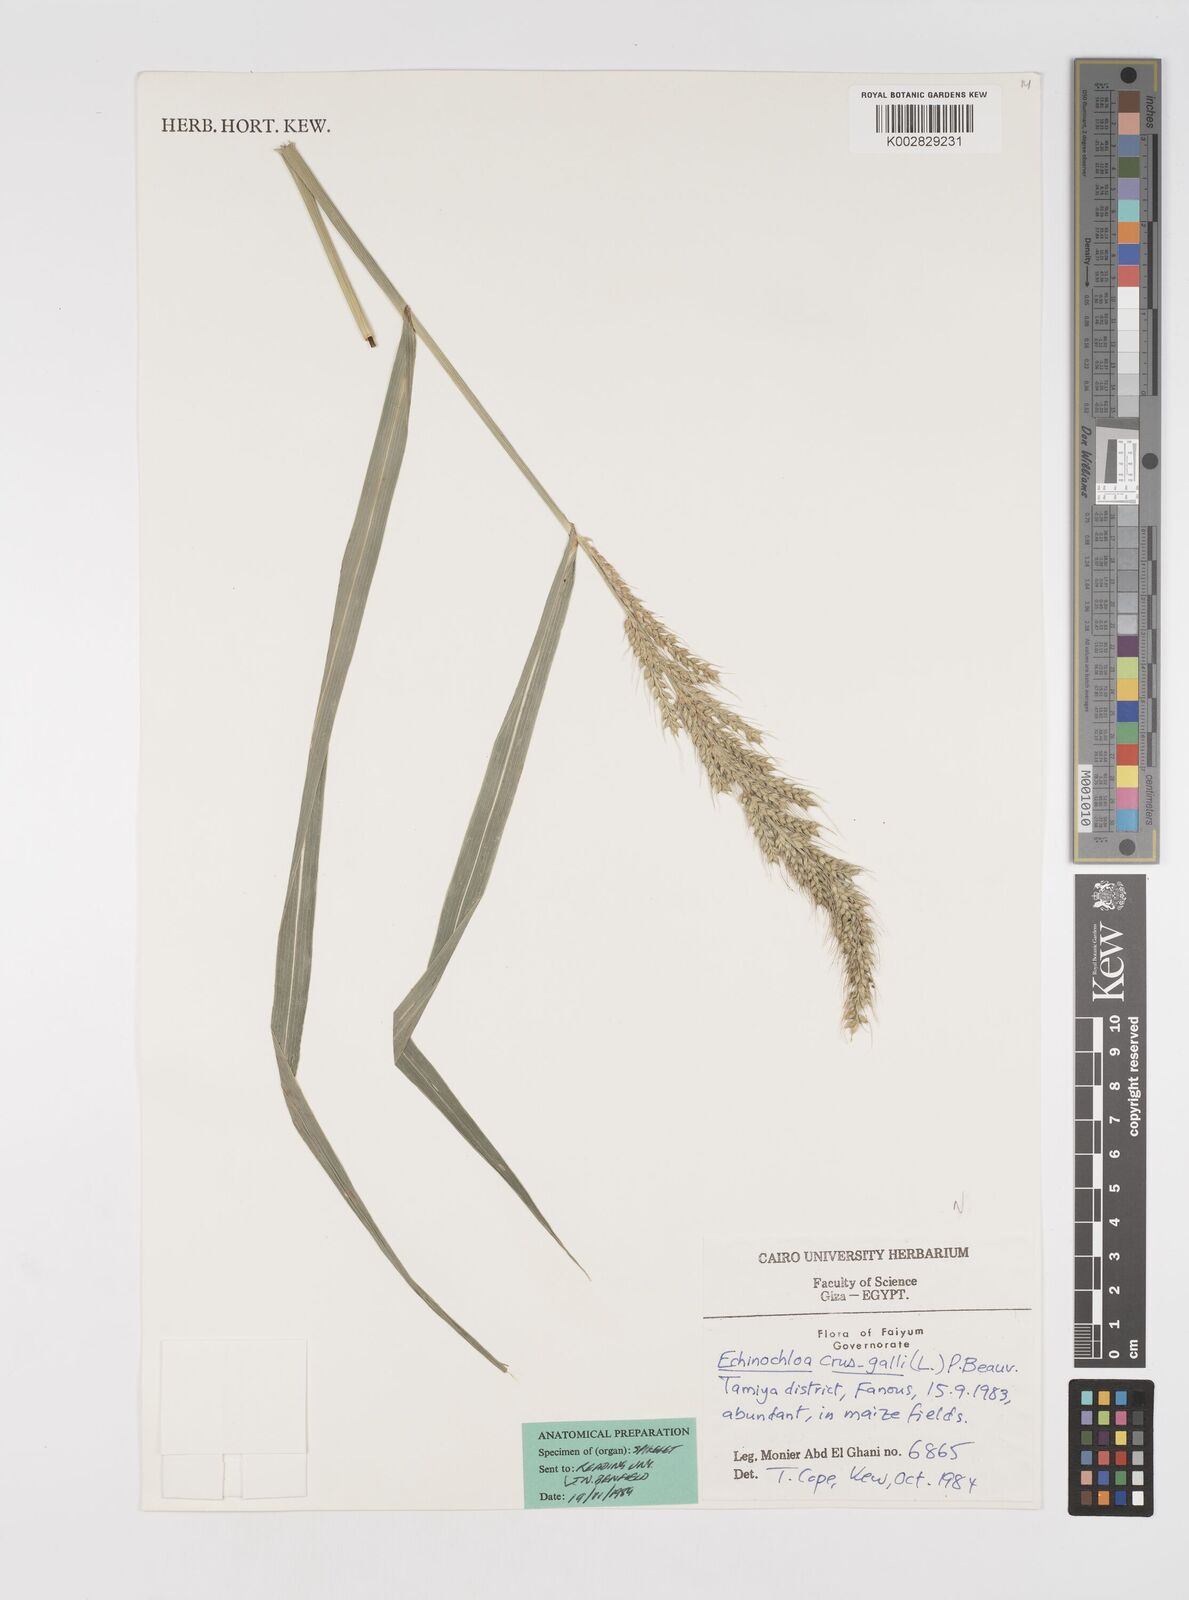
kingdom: Plantae
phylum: Tracheophyta
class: Liliopsida
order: Poales
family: Poaceae
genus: Echinochloa
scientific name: Echinochloa crus-galli
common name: Cockspur
